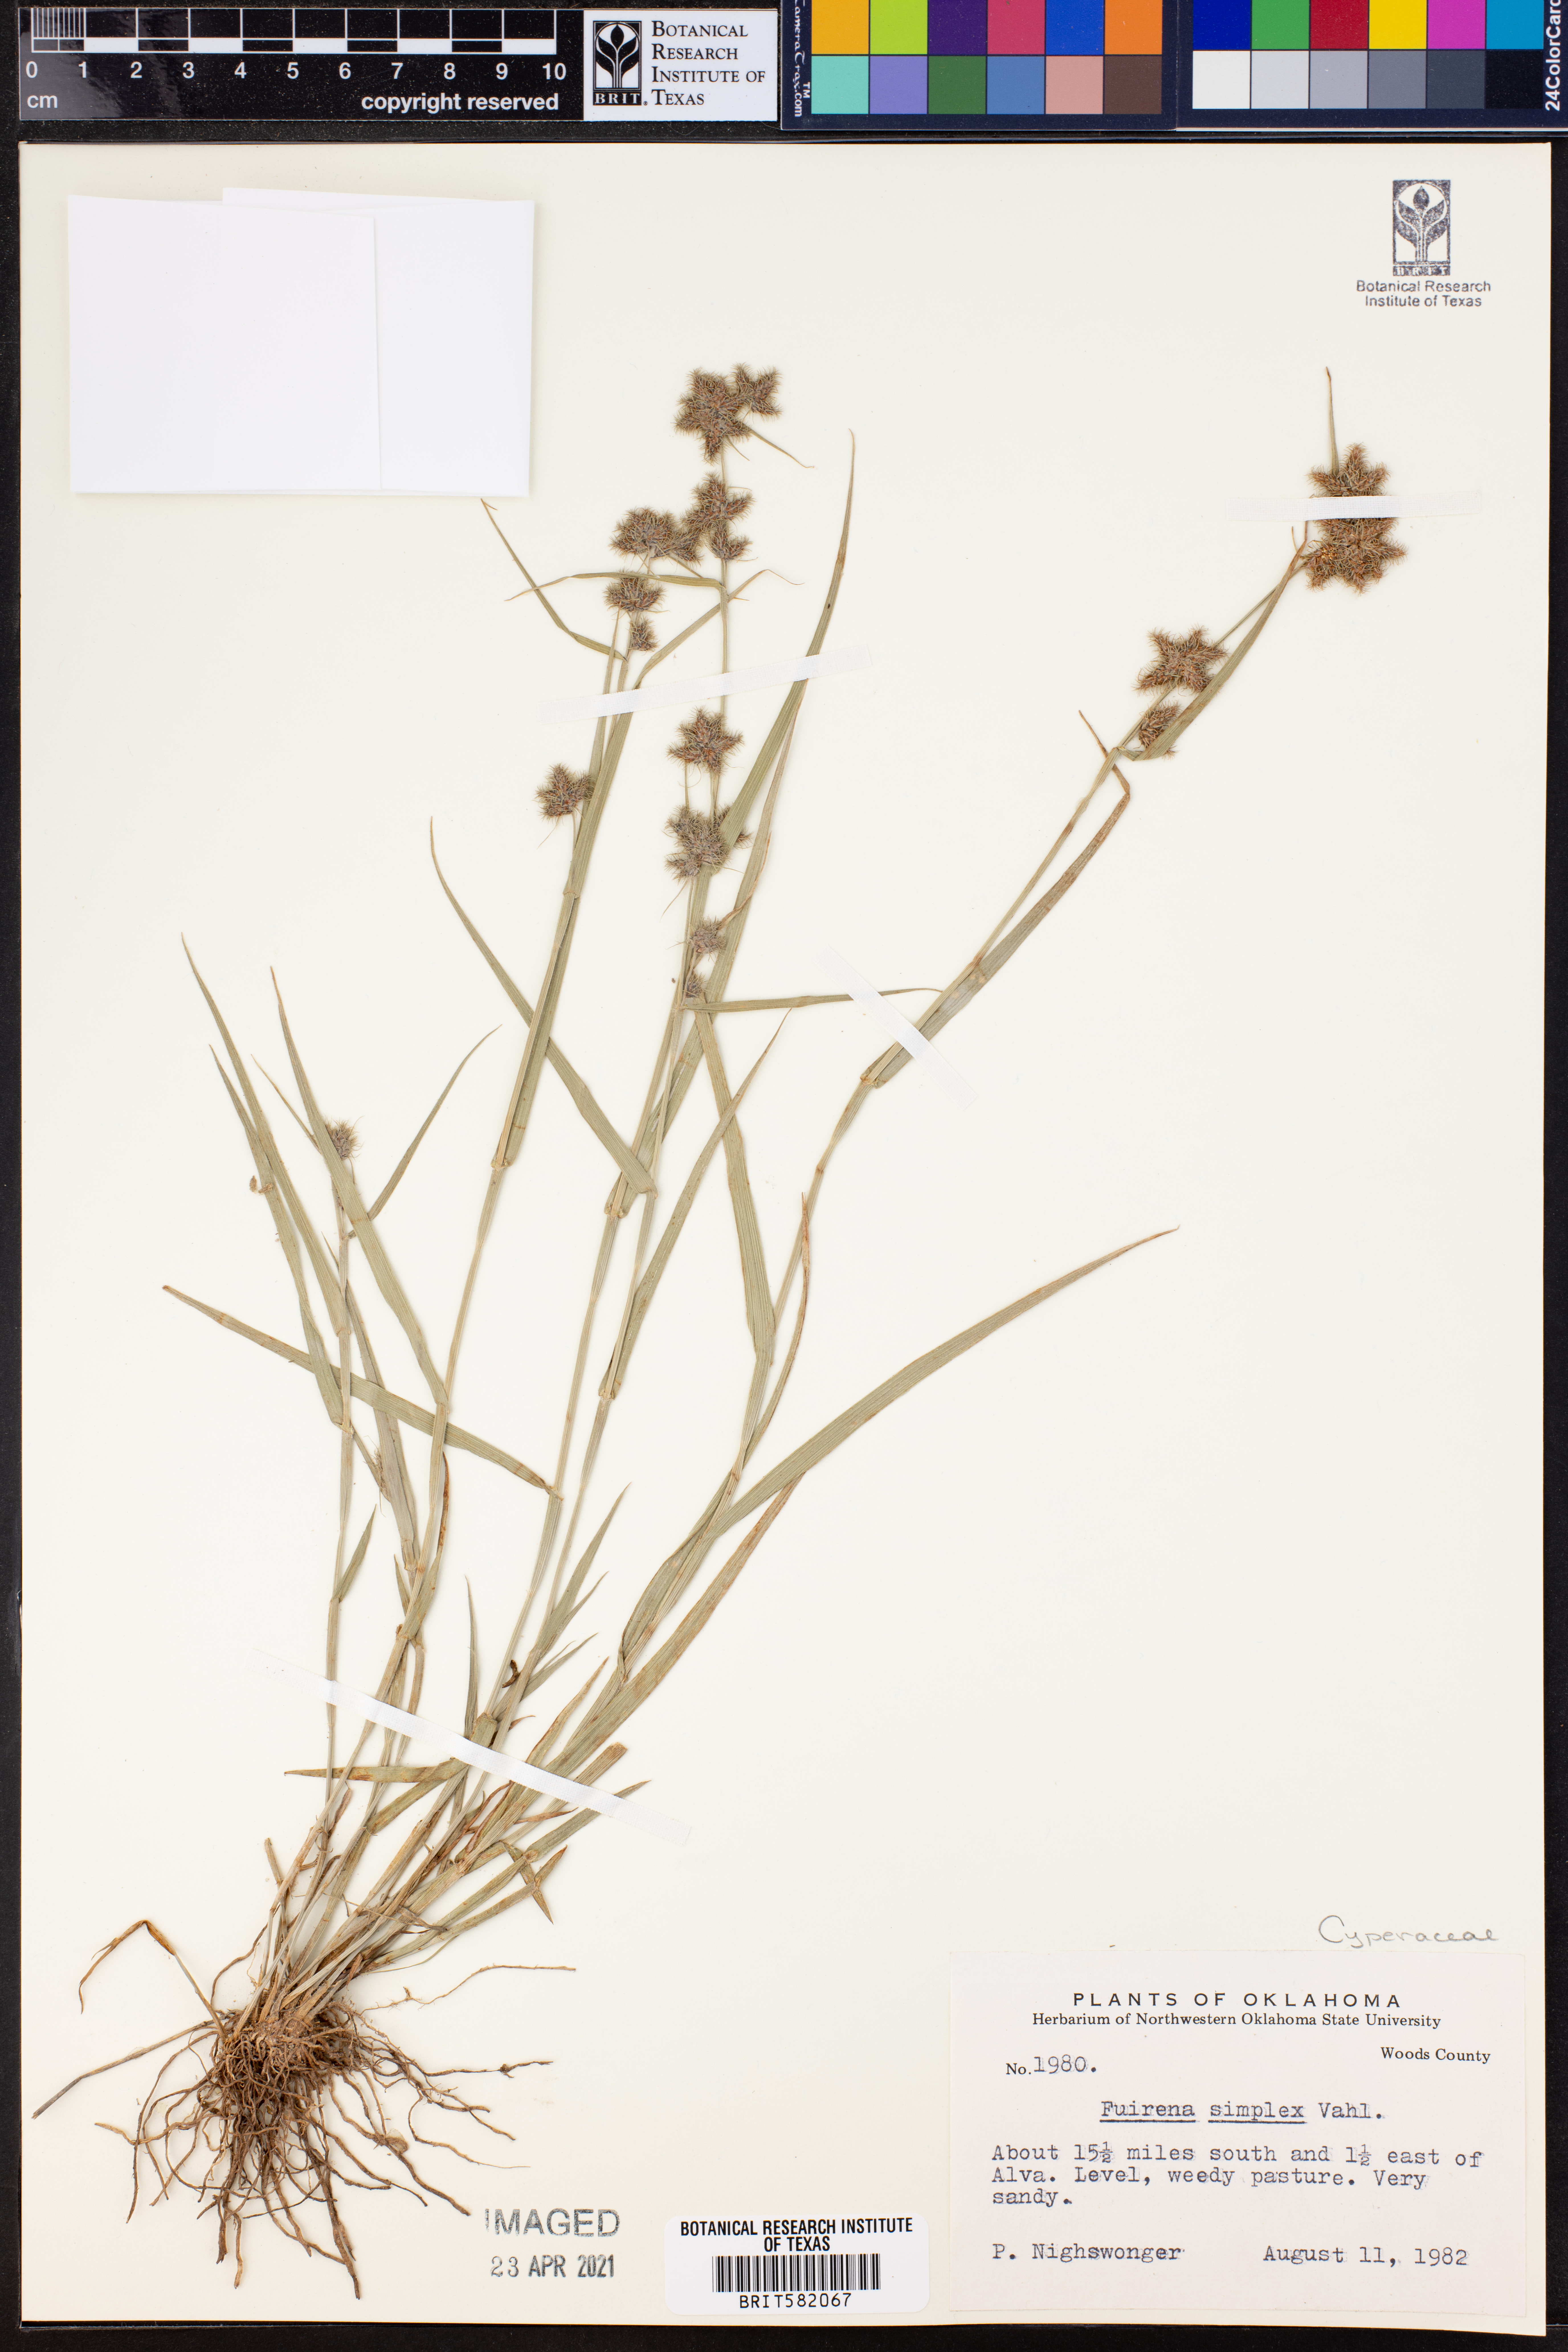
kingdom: Plantae
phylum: Tracheophyta
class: Liliopsida
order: Poales
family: Cyperaceae
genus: Fuirena
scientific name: Fuirena simplex
